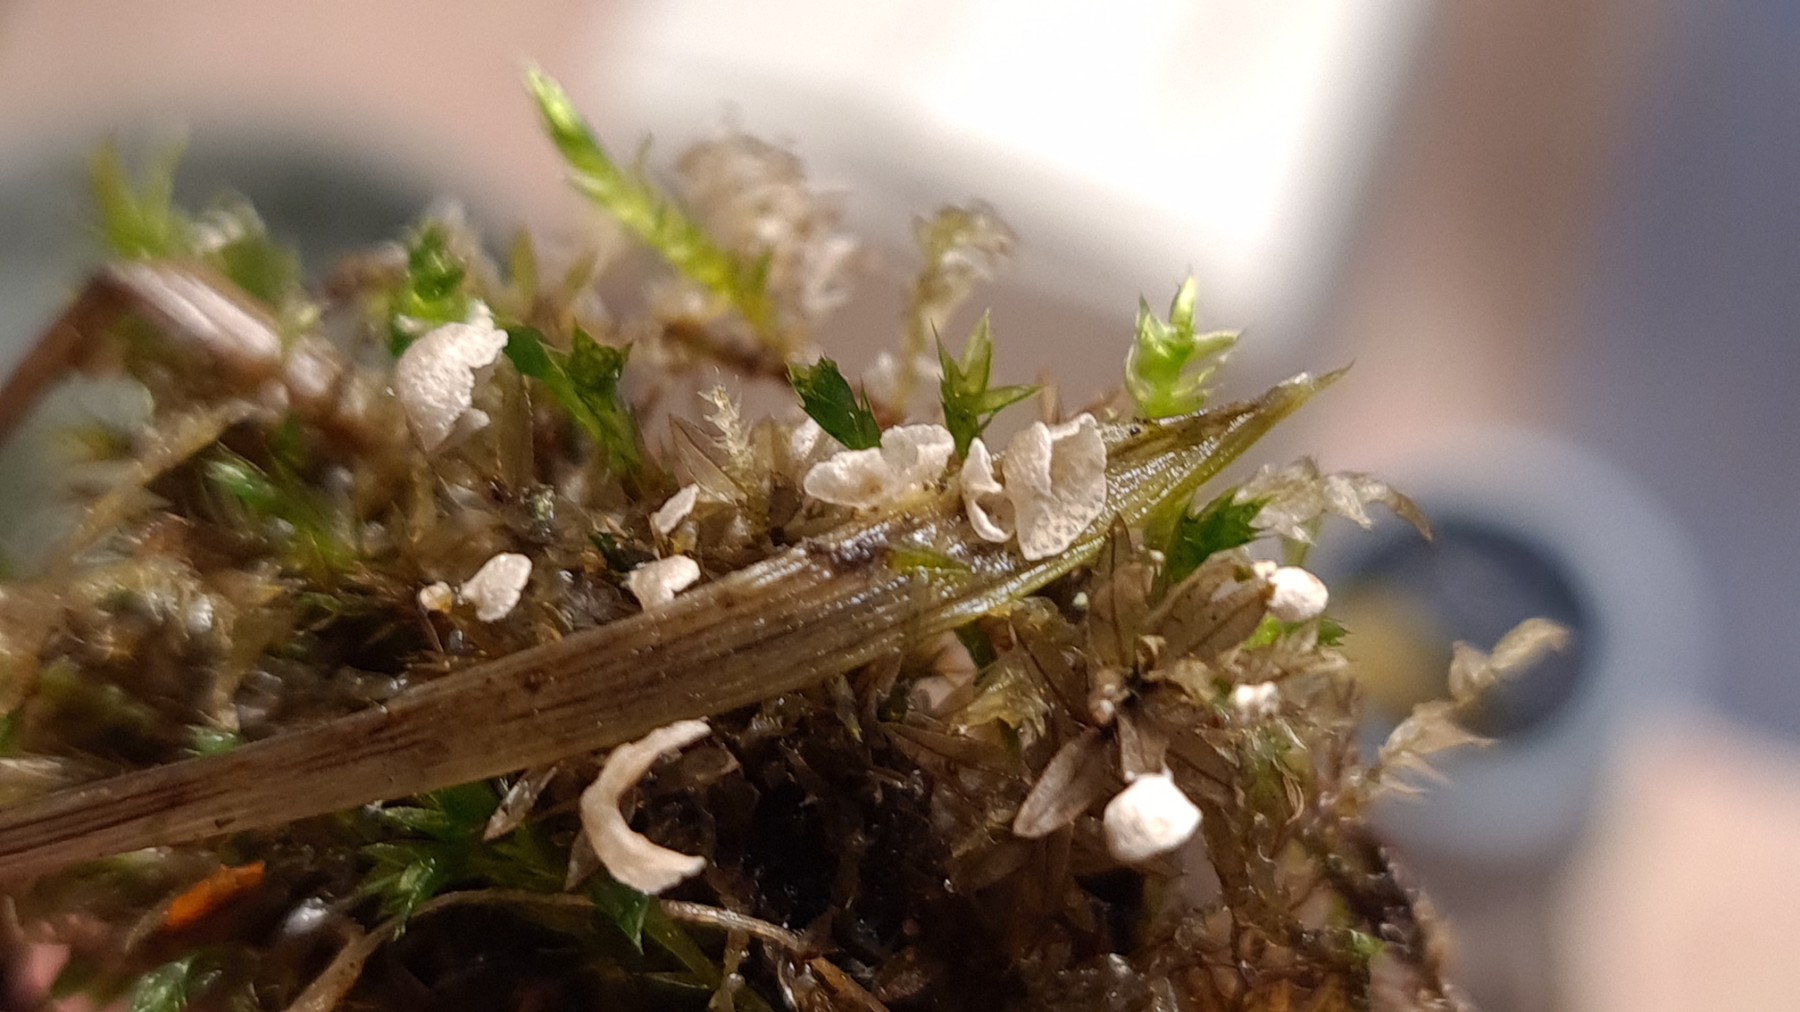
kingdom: Fungi
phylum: Basidiomycota
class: Agaricomycetes
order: Agaricales
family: Hygrophoraceae
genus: Arrhenia
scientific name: Arrhenia retiruga
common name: lille fontænehat
